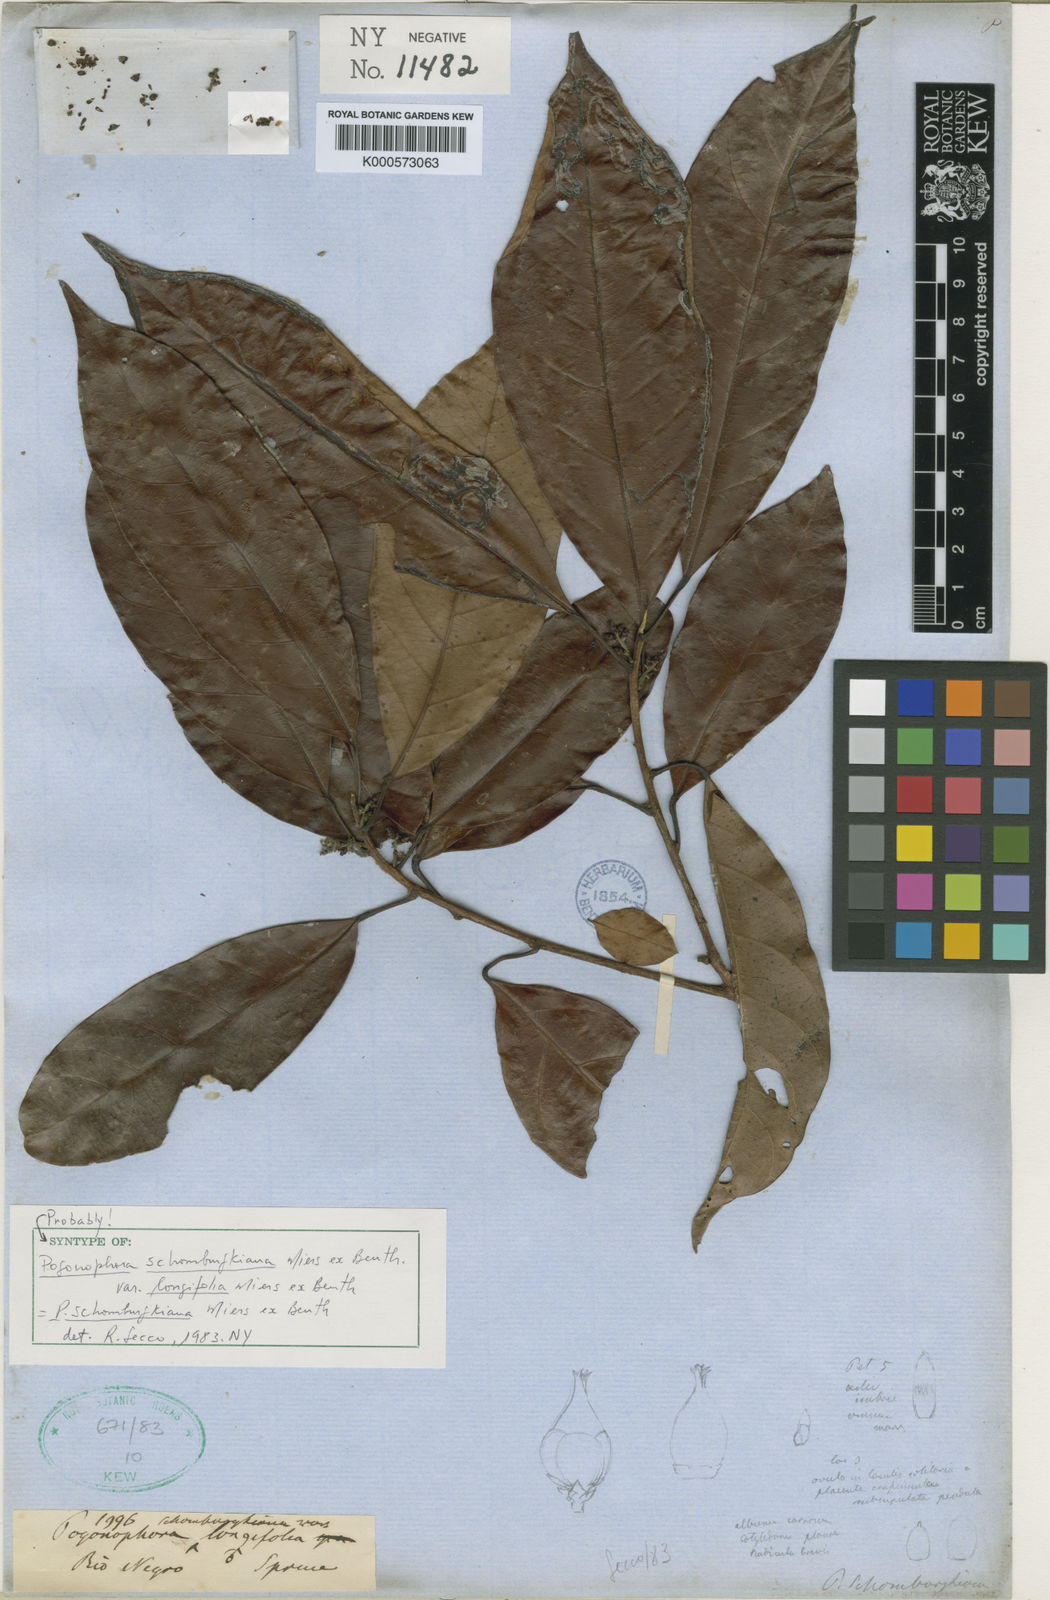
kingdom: Plantae
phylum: Tracheophyta
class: Magnoliopsida
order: Malpighiales
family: Peraceae
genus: Pogonophora
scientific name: Pogonophora schomburgkiana
